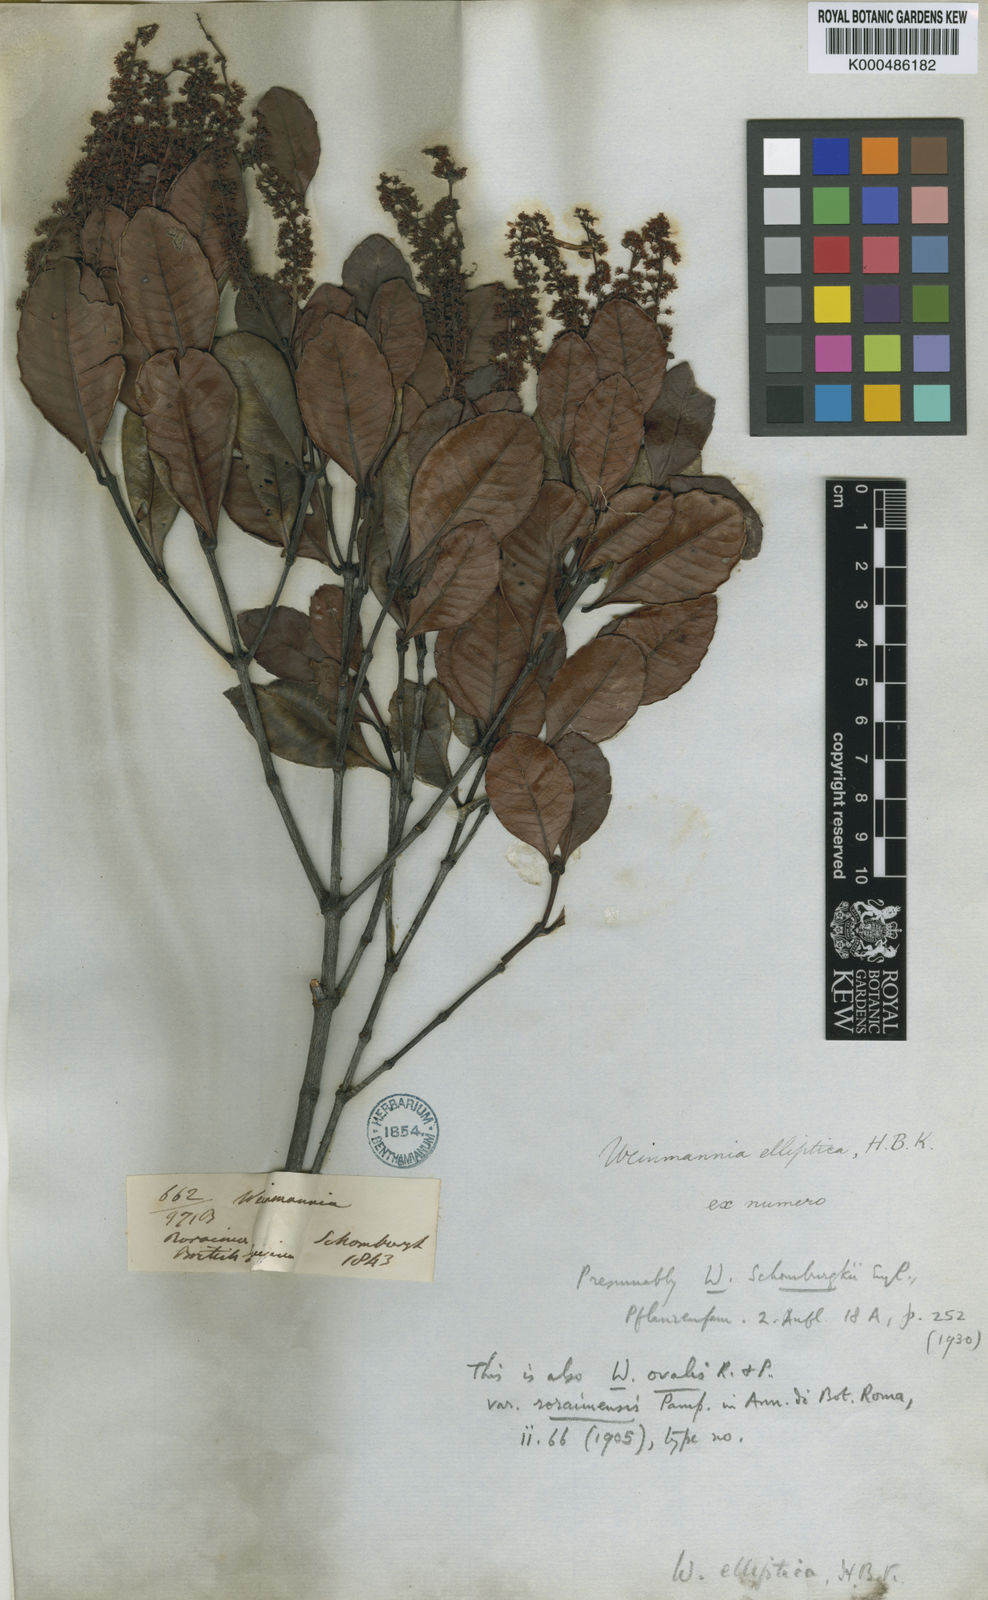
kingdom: Plantae
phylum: Tracheophyta
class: Magnoliopsida
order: Oxalidales
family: Cunoniaceae
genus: Weinmannia
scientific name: Weinmannia elliptica
